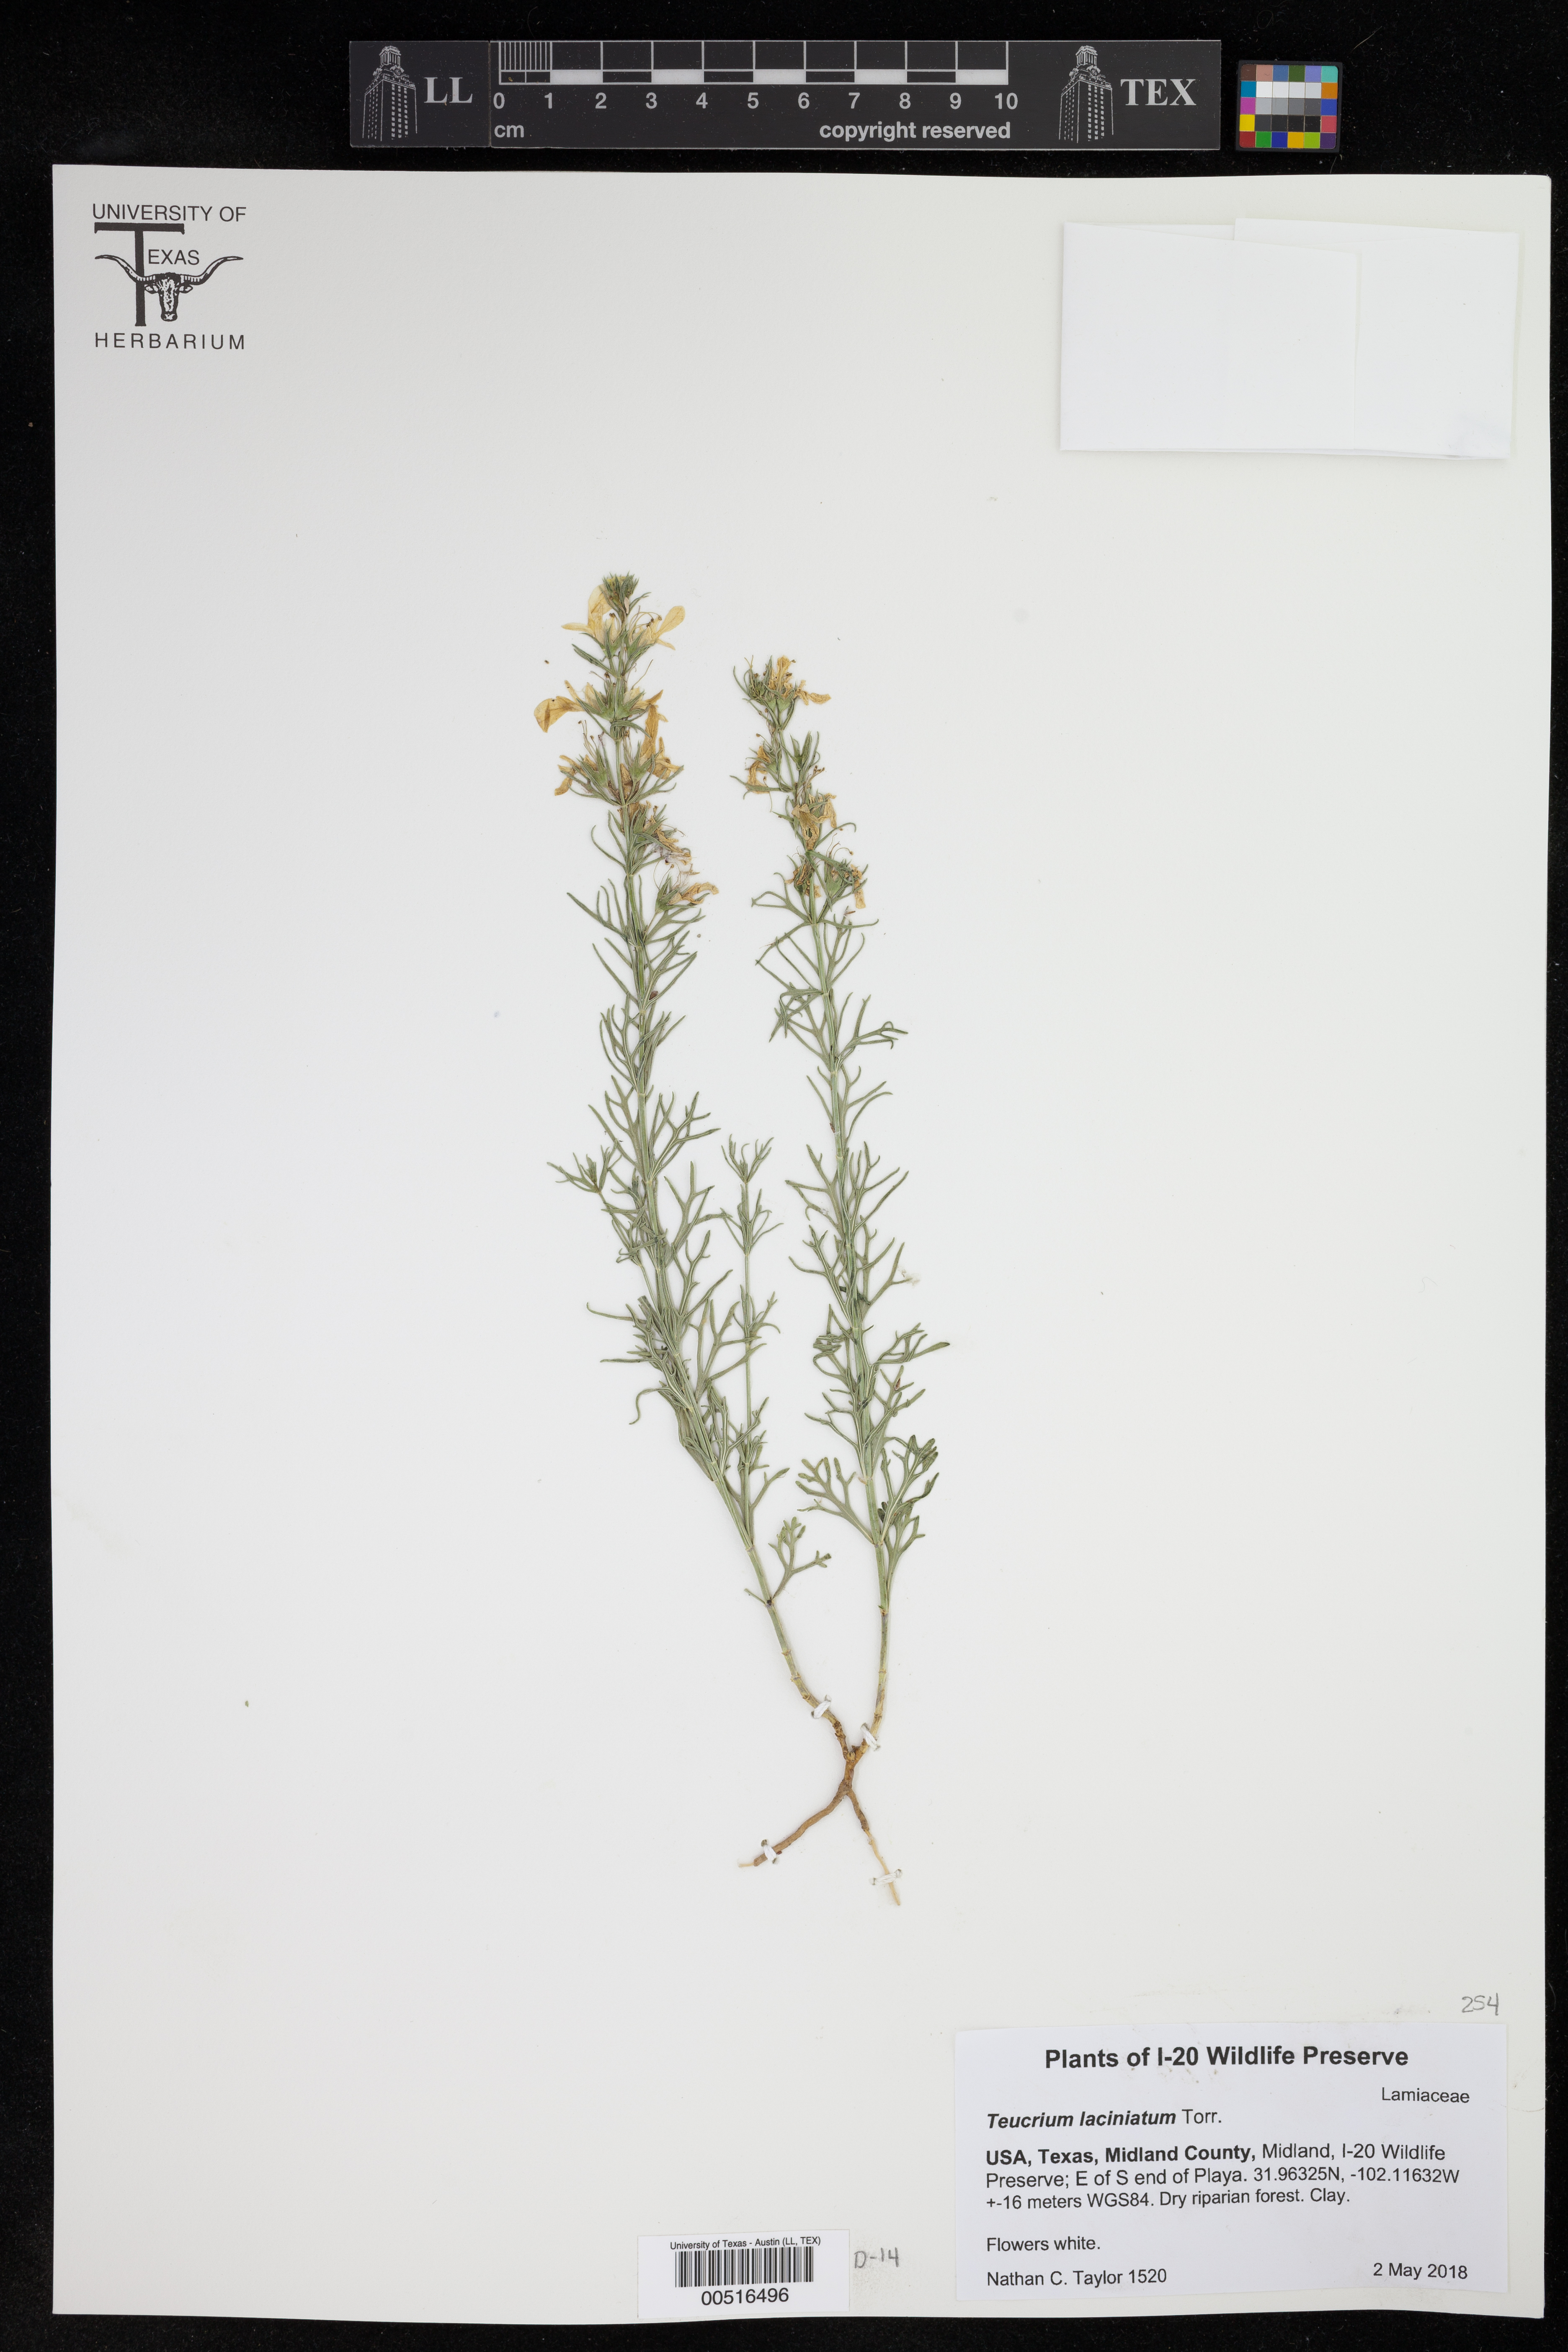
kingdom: Plantae
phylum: Tracheophyta
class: Magnoliopsida
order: Lamiales
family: Lamiaceae
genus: Teucrium
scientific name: Teucrium laciniatum
